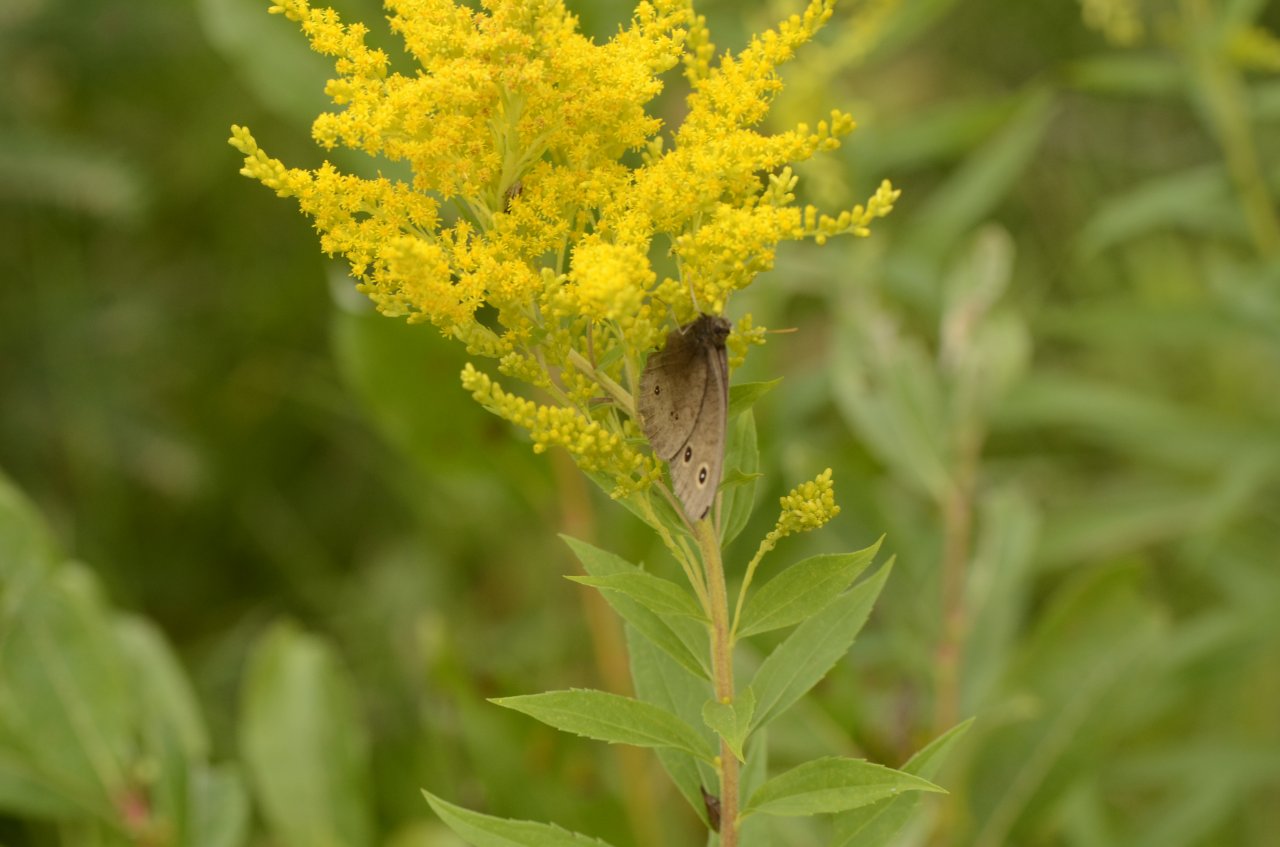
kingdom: Animalia
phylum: Arthropoda
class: Insecta
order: Lepidoptera
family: Nymphalidae
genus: Cercyonis
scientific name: Cercyonis pegala
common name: Common Wood-Nymph
